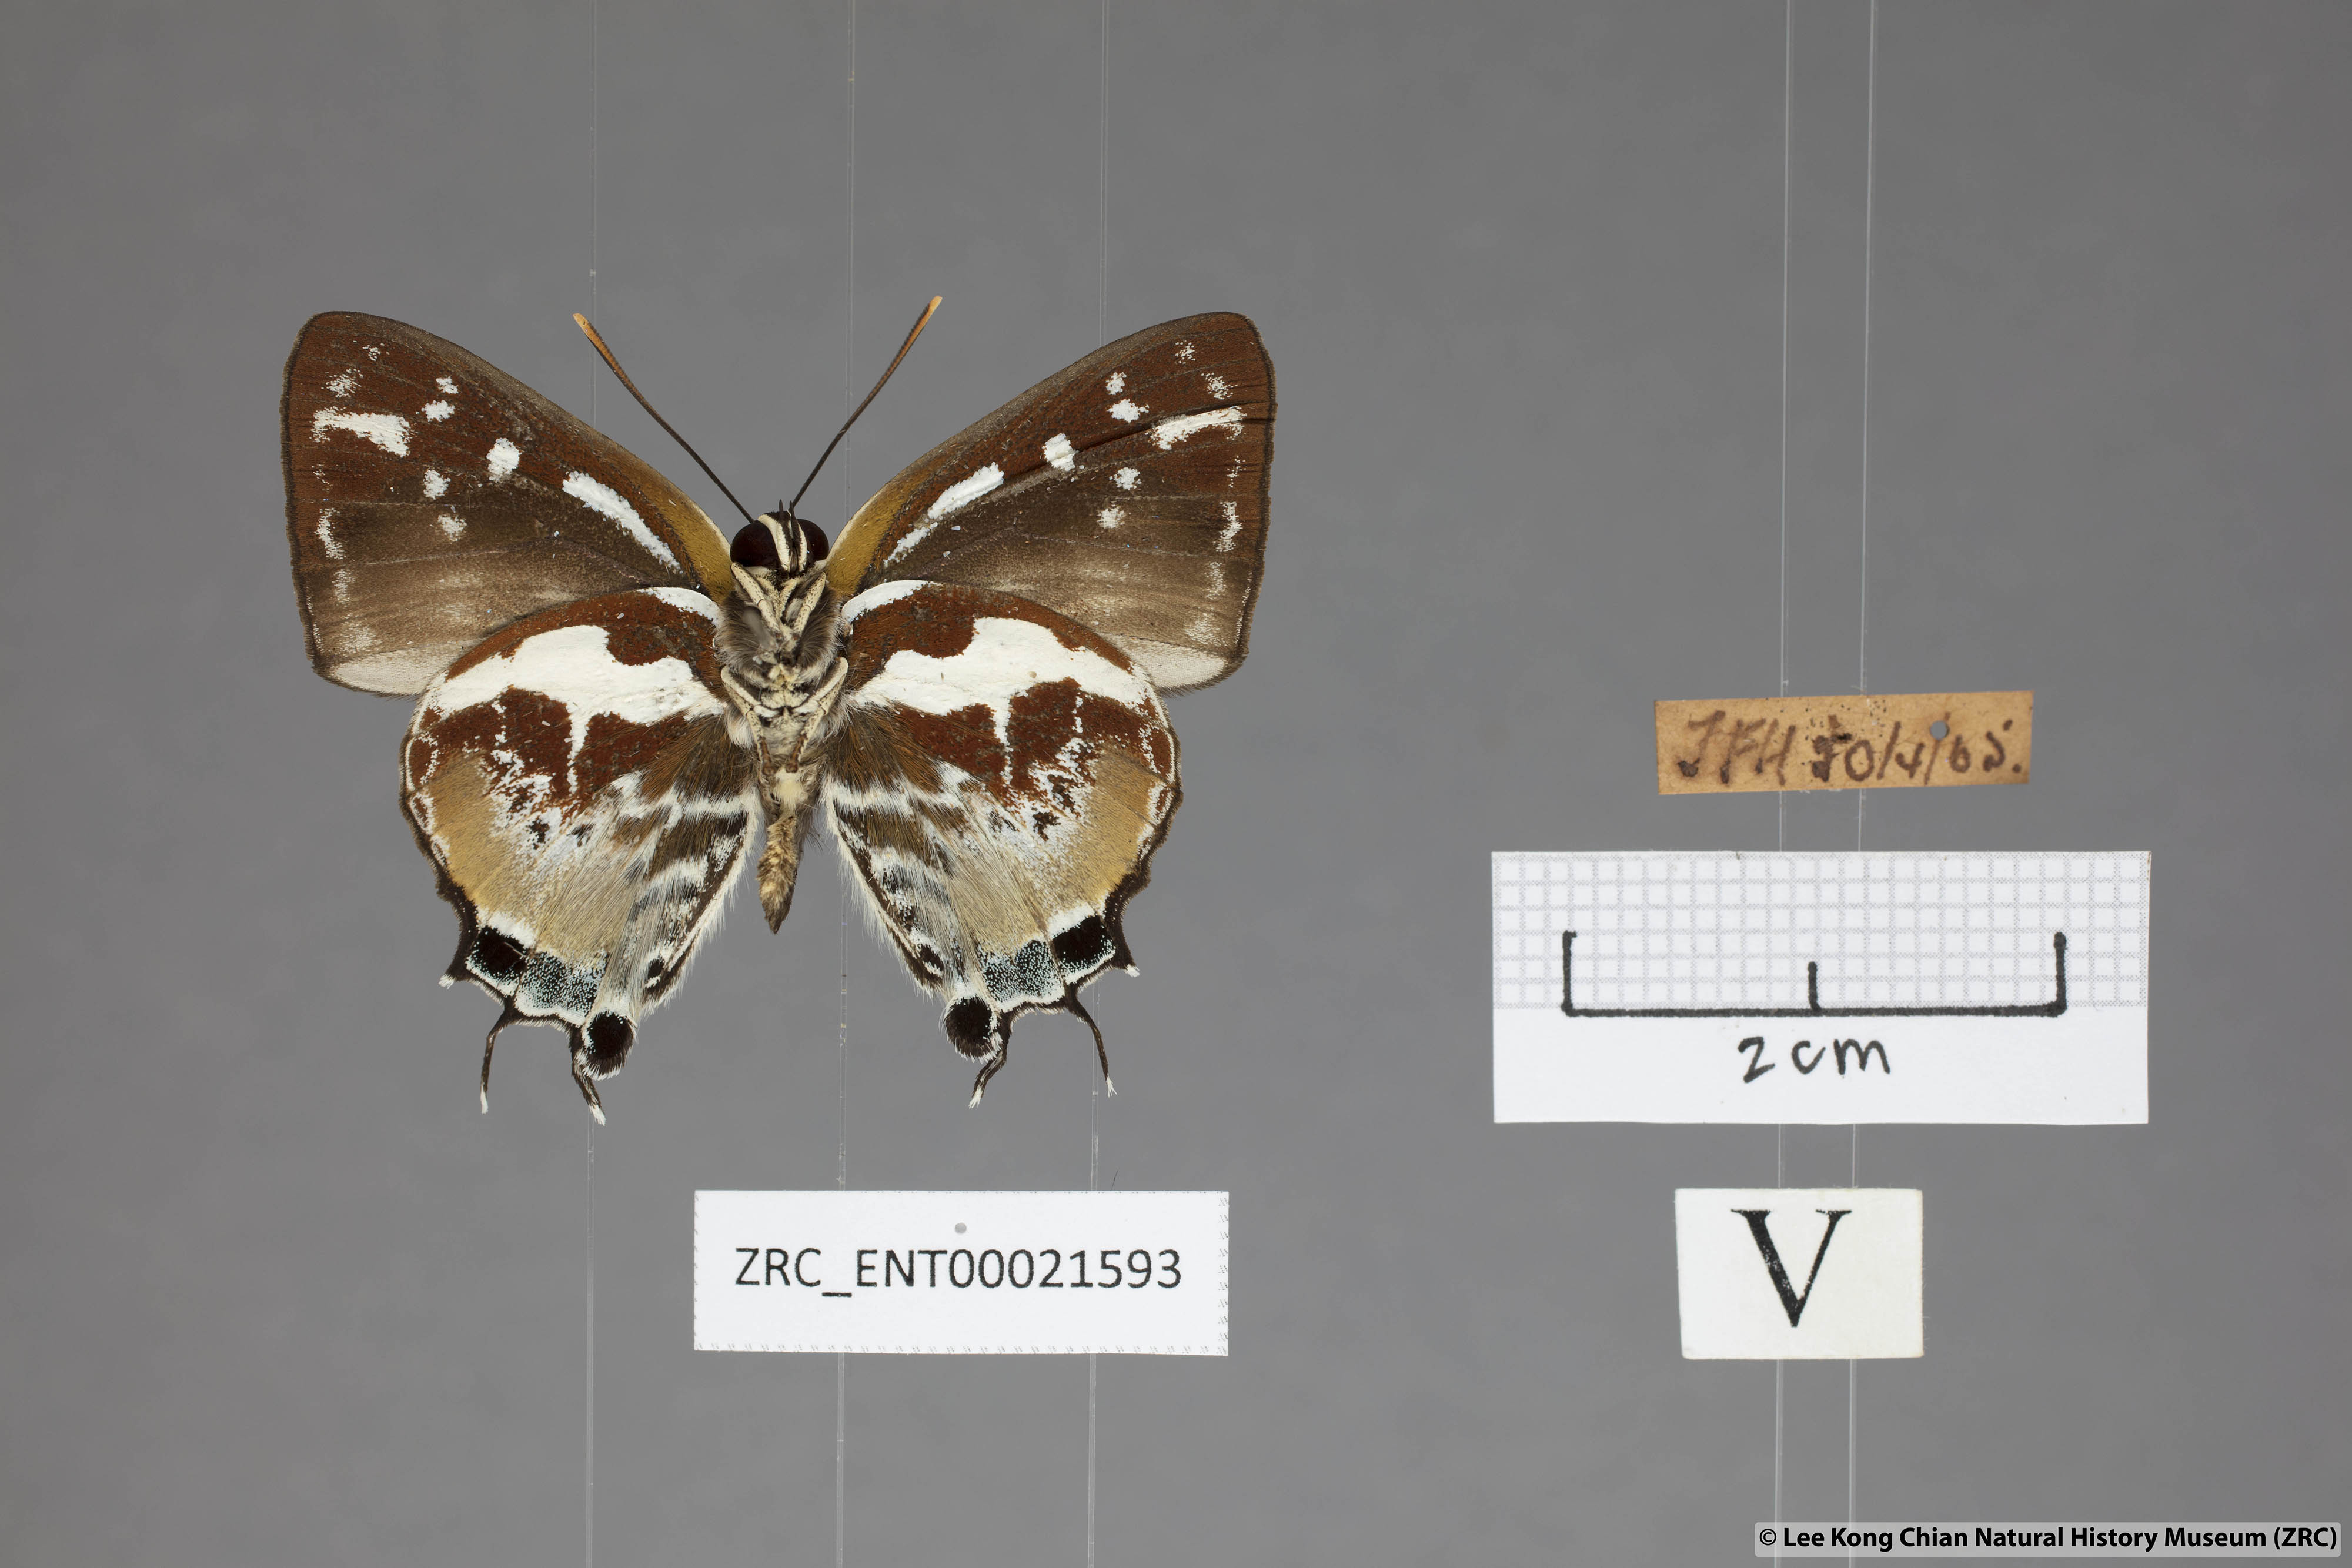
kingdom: Animalia
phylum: Arthropoda
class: Insecta
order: Lepidoptera
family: Lycaenidae
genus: Iraota
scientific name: Iraota rochana
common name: Scarce silverstreak blue
